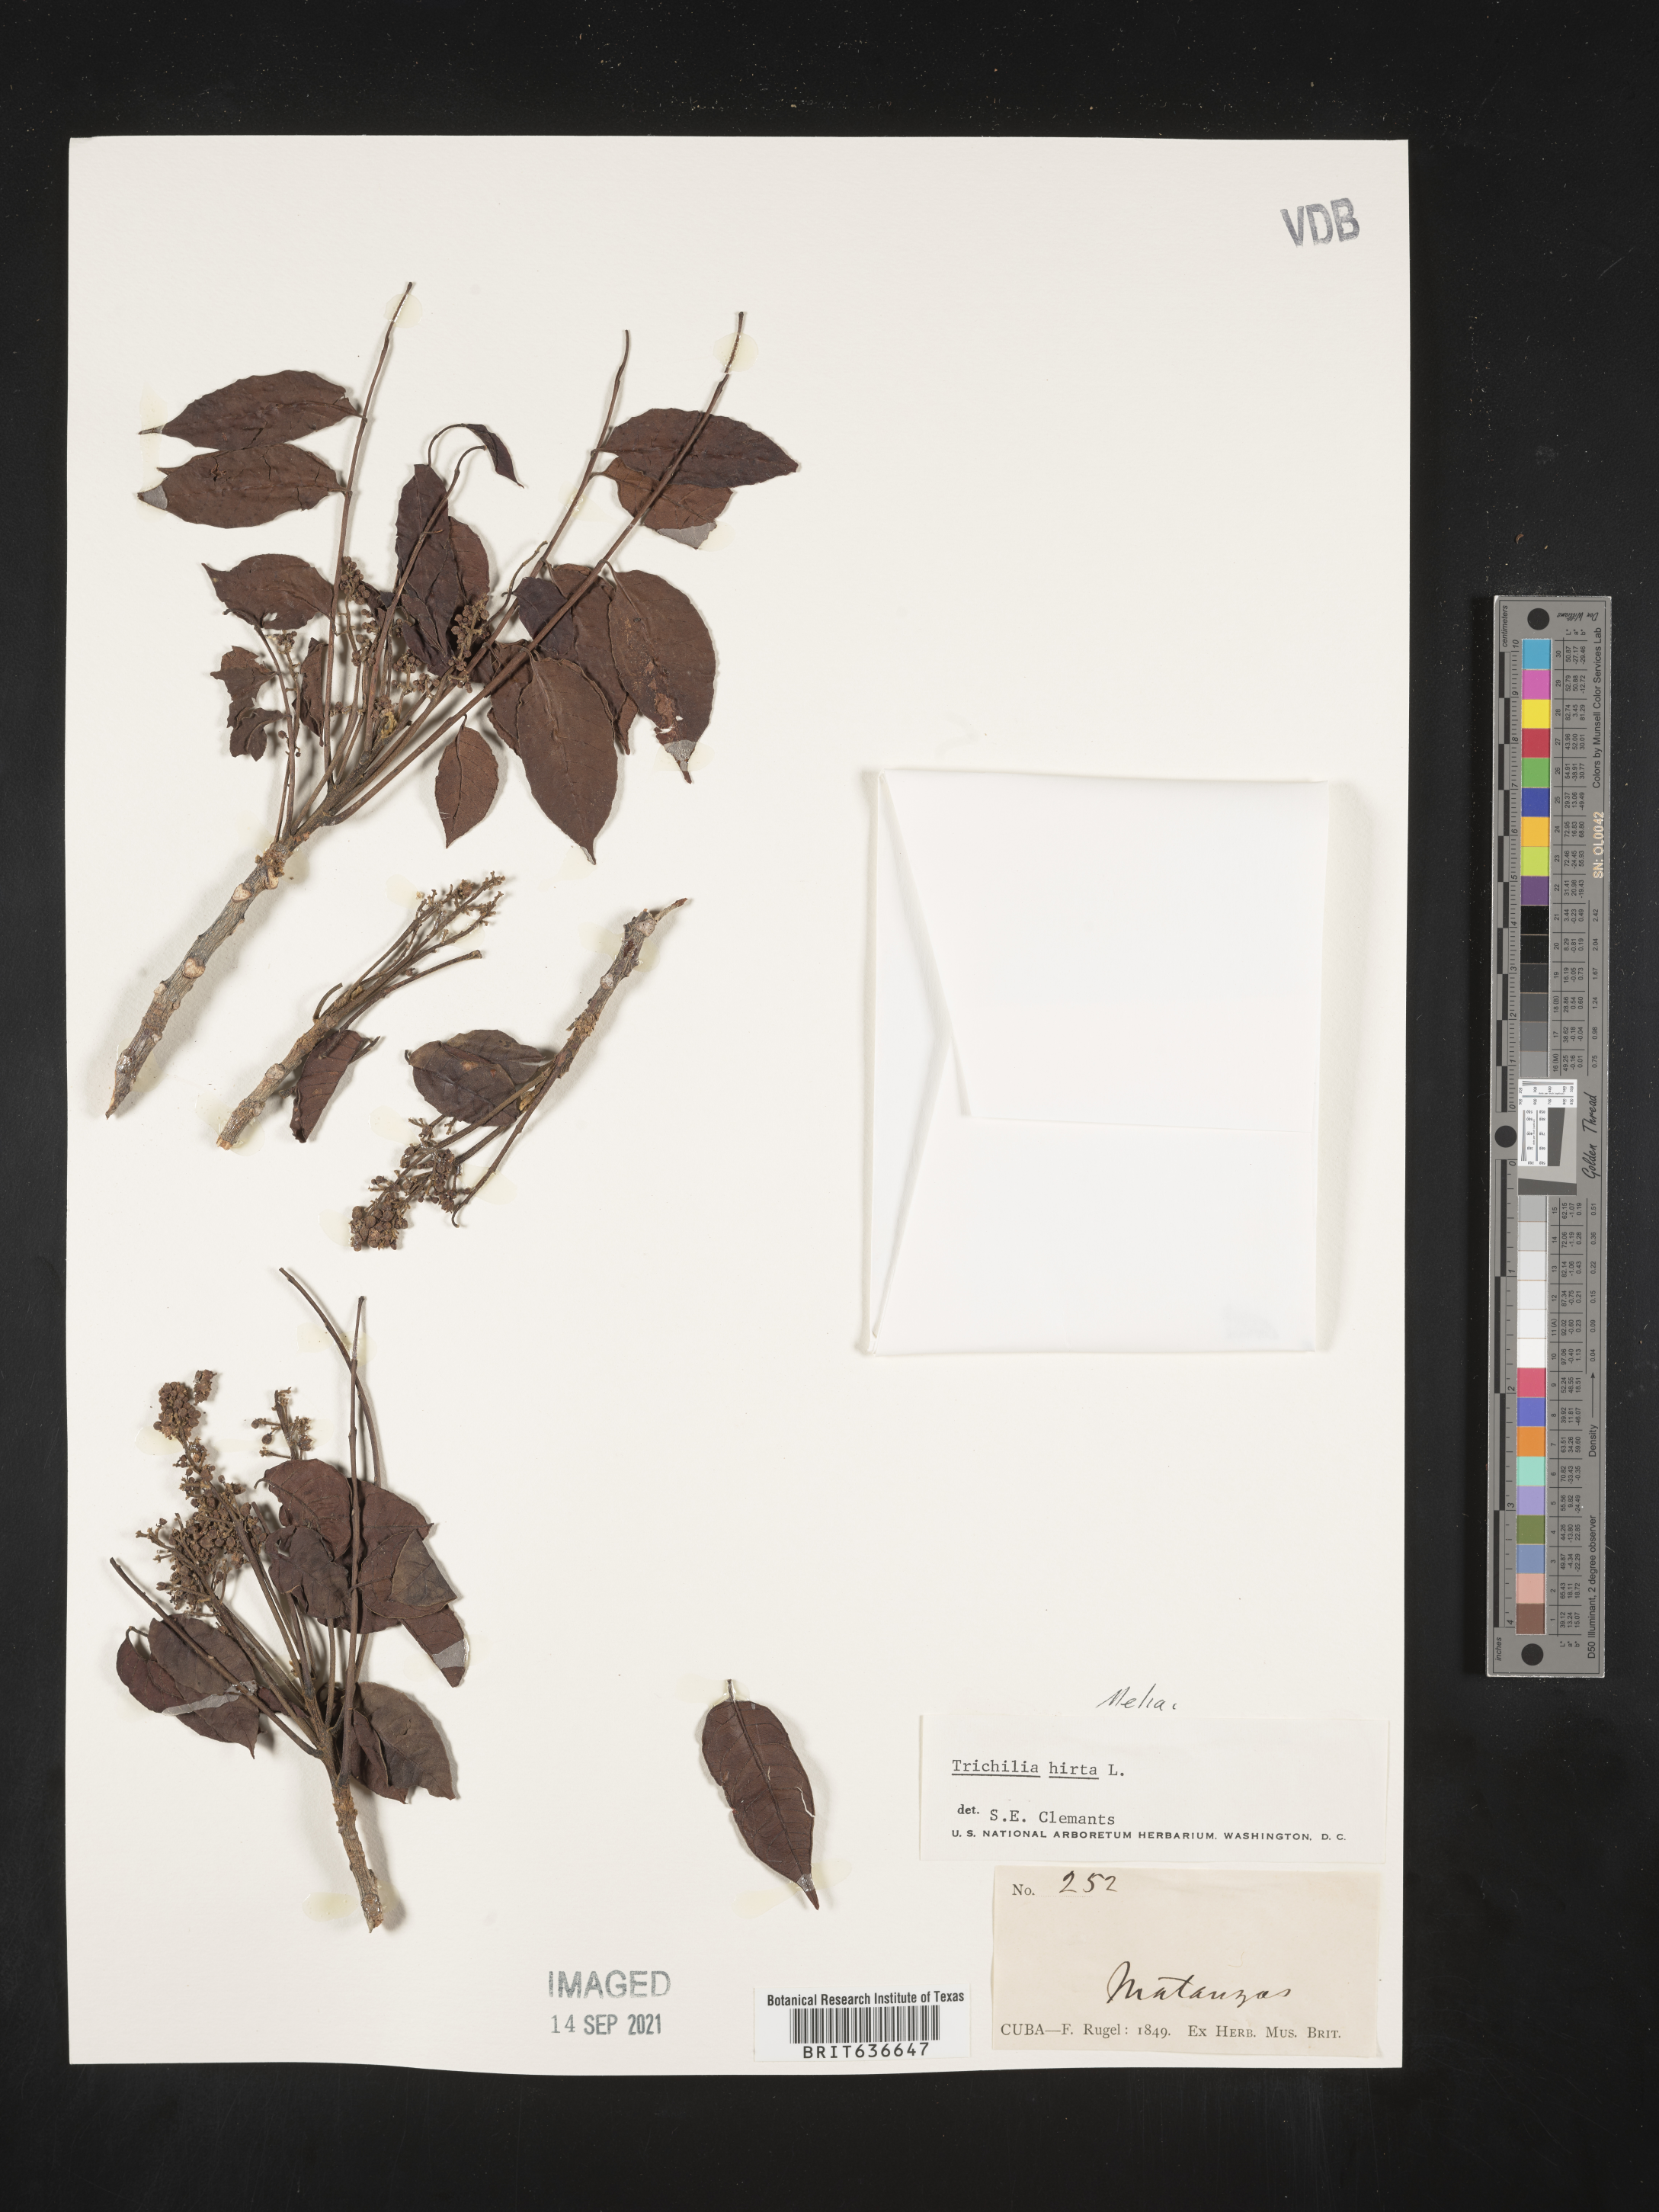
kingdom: Plantae
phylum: Tracheophyta
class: Magnoliopsida
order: Sapindales
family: Meliaceae
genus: Trichilia
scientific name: Trichilia
